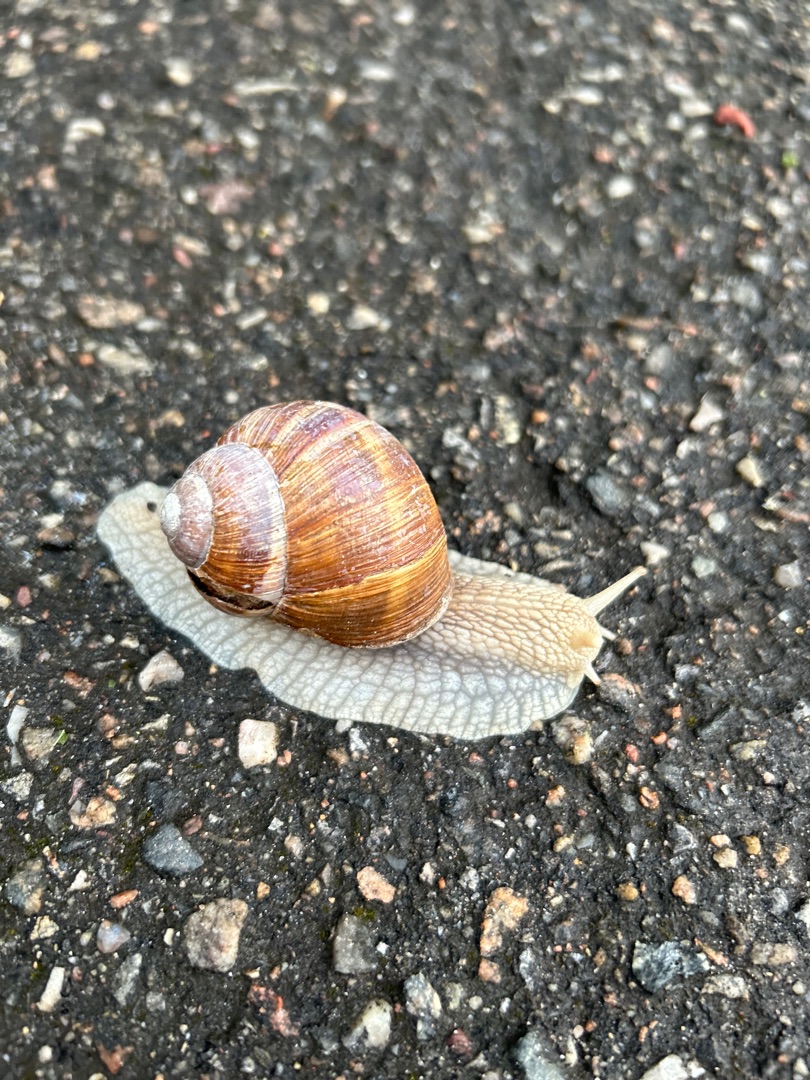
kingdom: Animalia
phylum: Mollusca
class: Gastropoda
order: Stylommatophora
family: Helicidae
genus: Helix
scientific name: Helix pomatia
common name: Vinbjergsnegl
